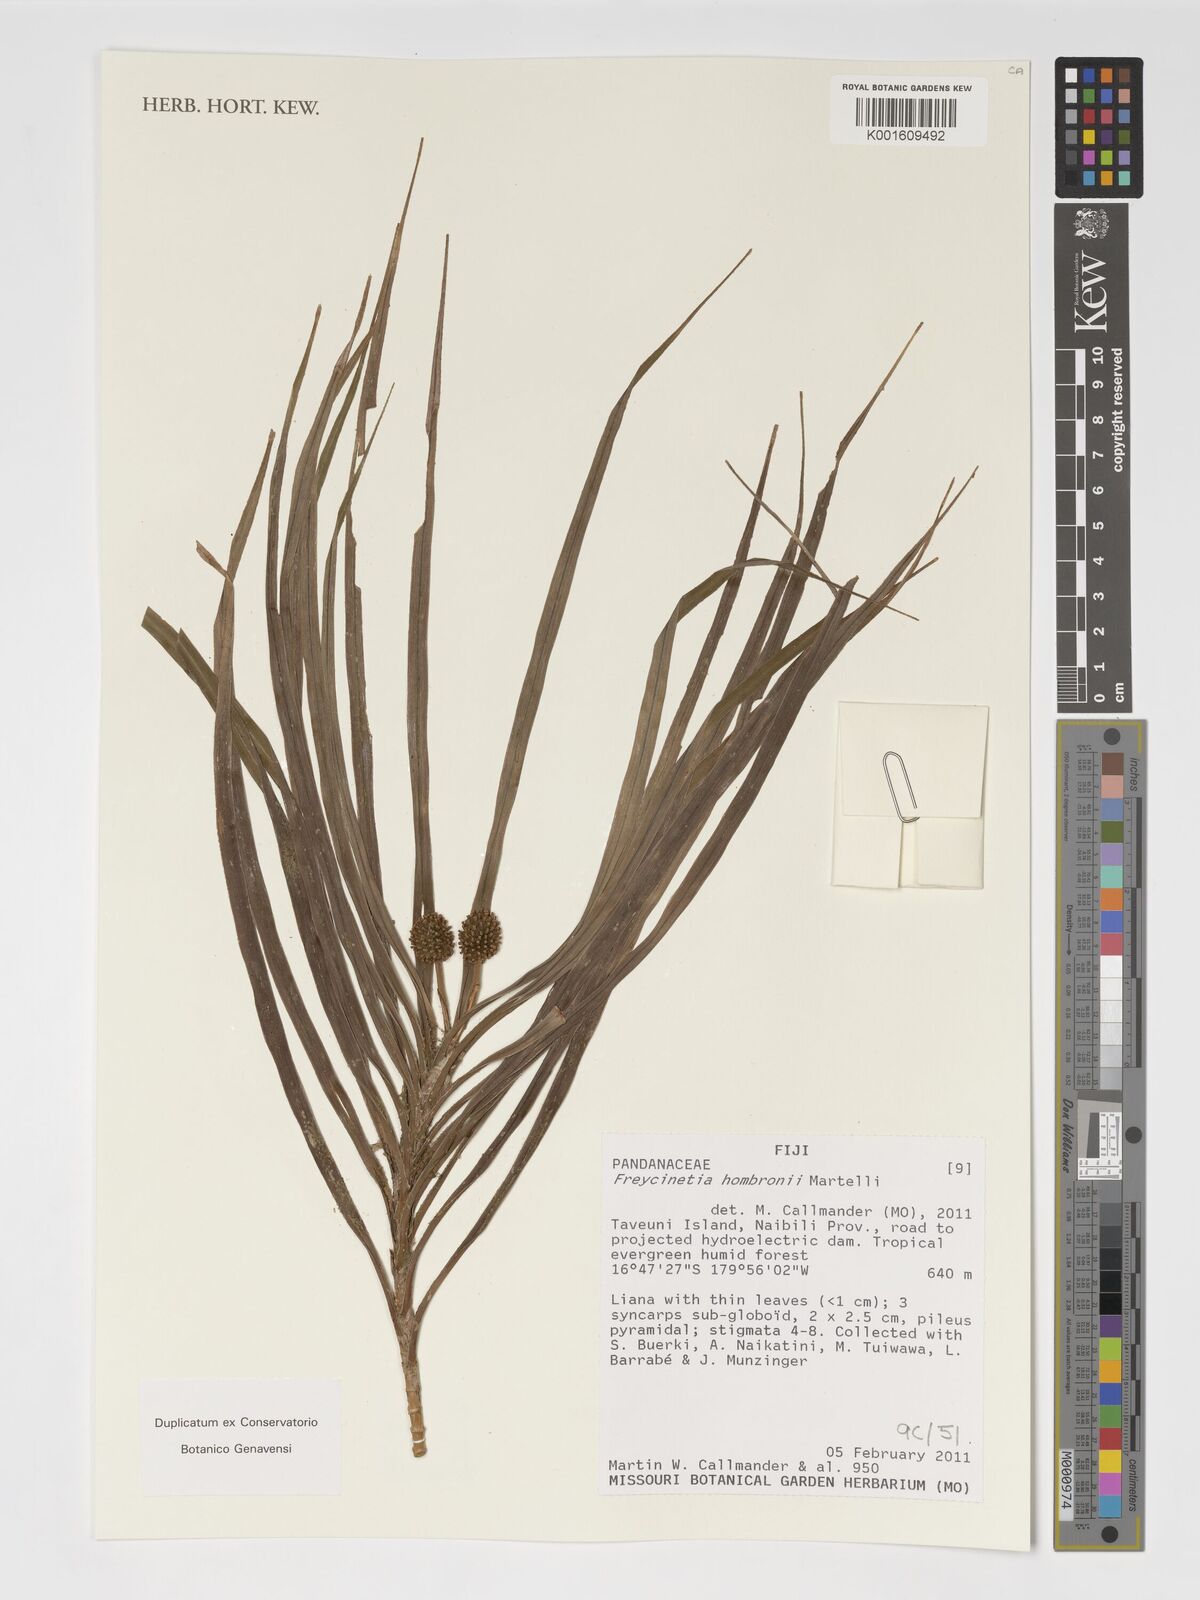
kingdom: Plantae
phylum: Tracheophyta
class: Liliopsida
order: Pandanales
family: Pandanaceae
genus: Freycinetia
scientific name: Freycinetia hombronii
